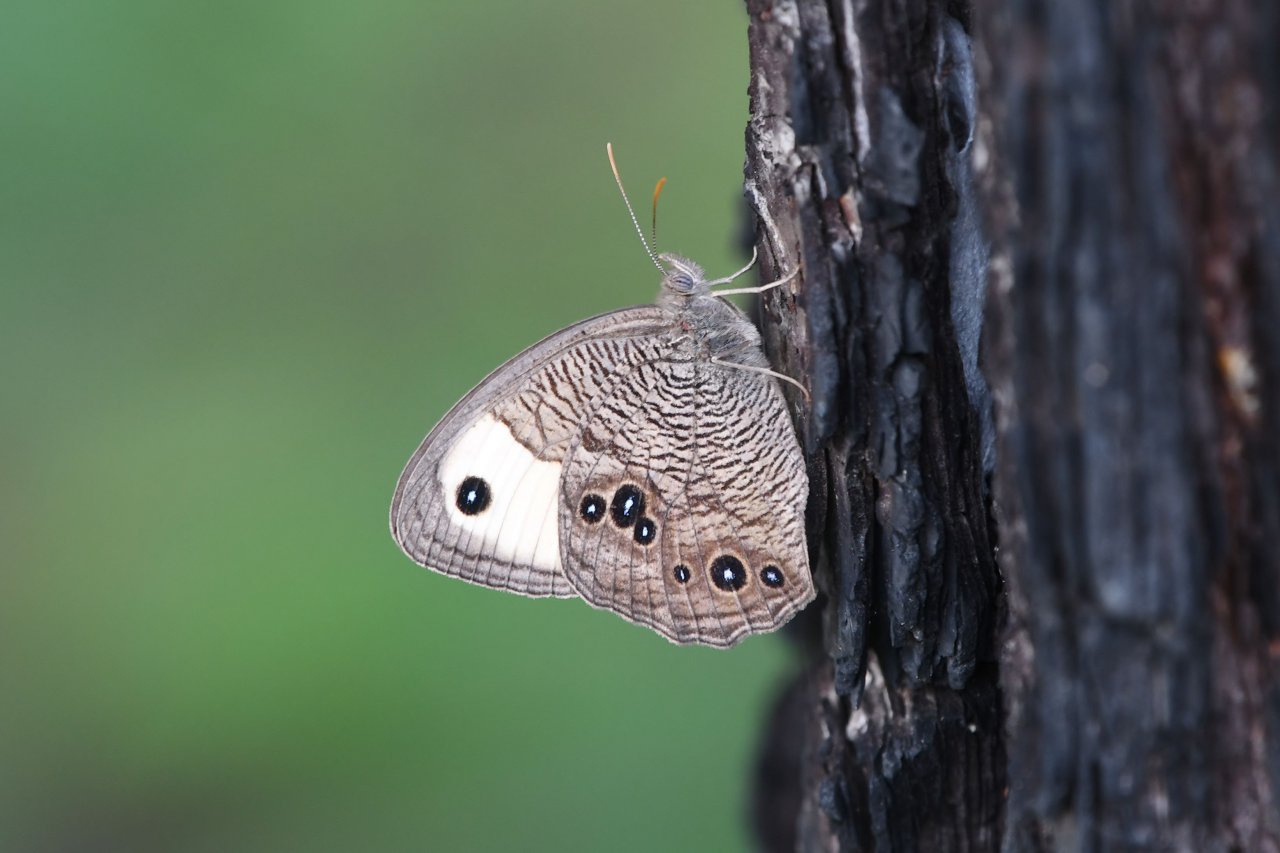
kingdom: Animalia
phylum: Arthropoda
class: Insecta
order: Lepidoptera
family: Nymphalidae
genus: Cercyonis
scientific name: Cercyonis pegala
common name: Common Wood-Nymph
